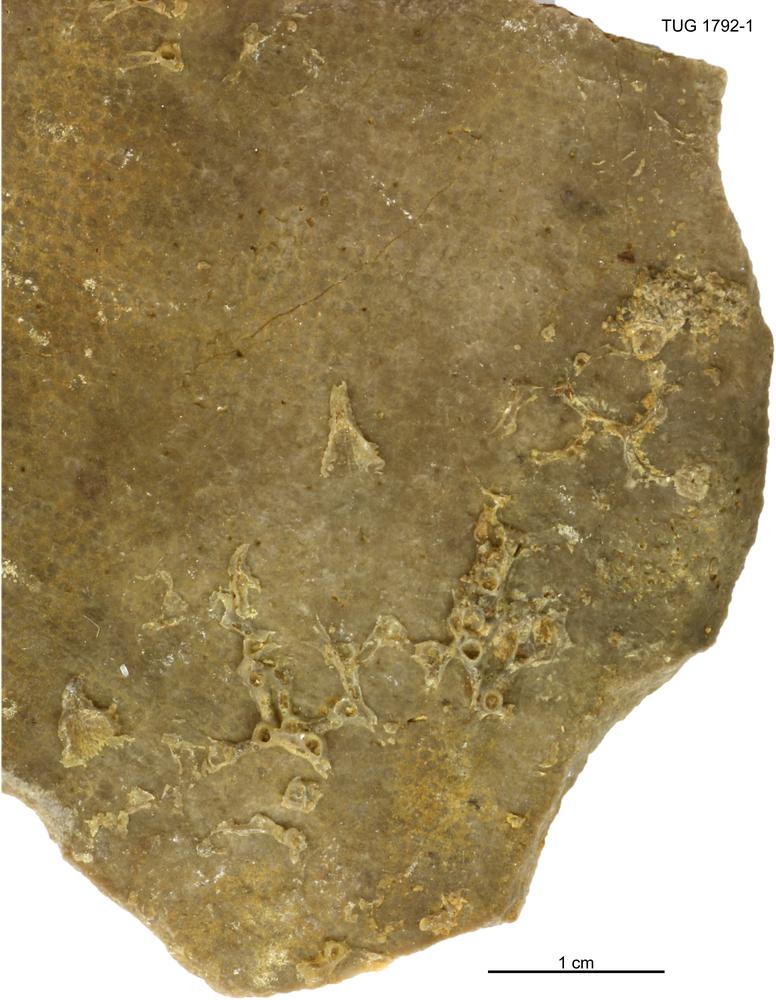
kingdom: Animalia
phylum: Cnidaria
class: Anthozoa
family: Auloporidae
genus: Aulopora
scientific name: Aulopora
